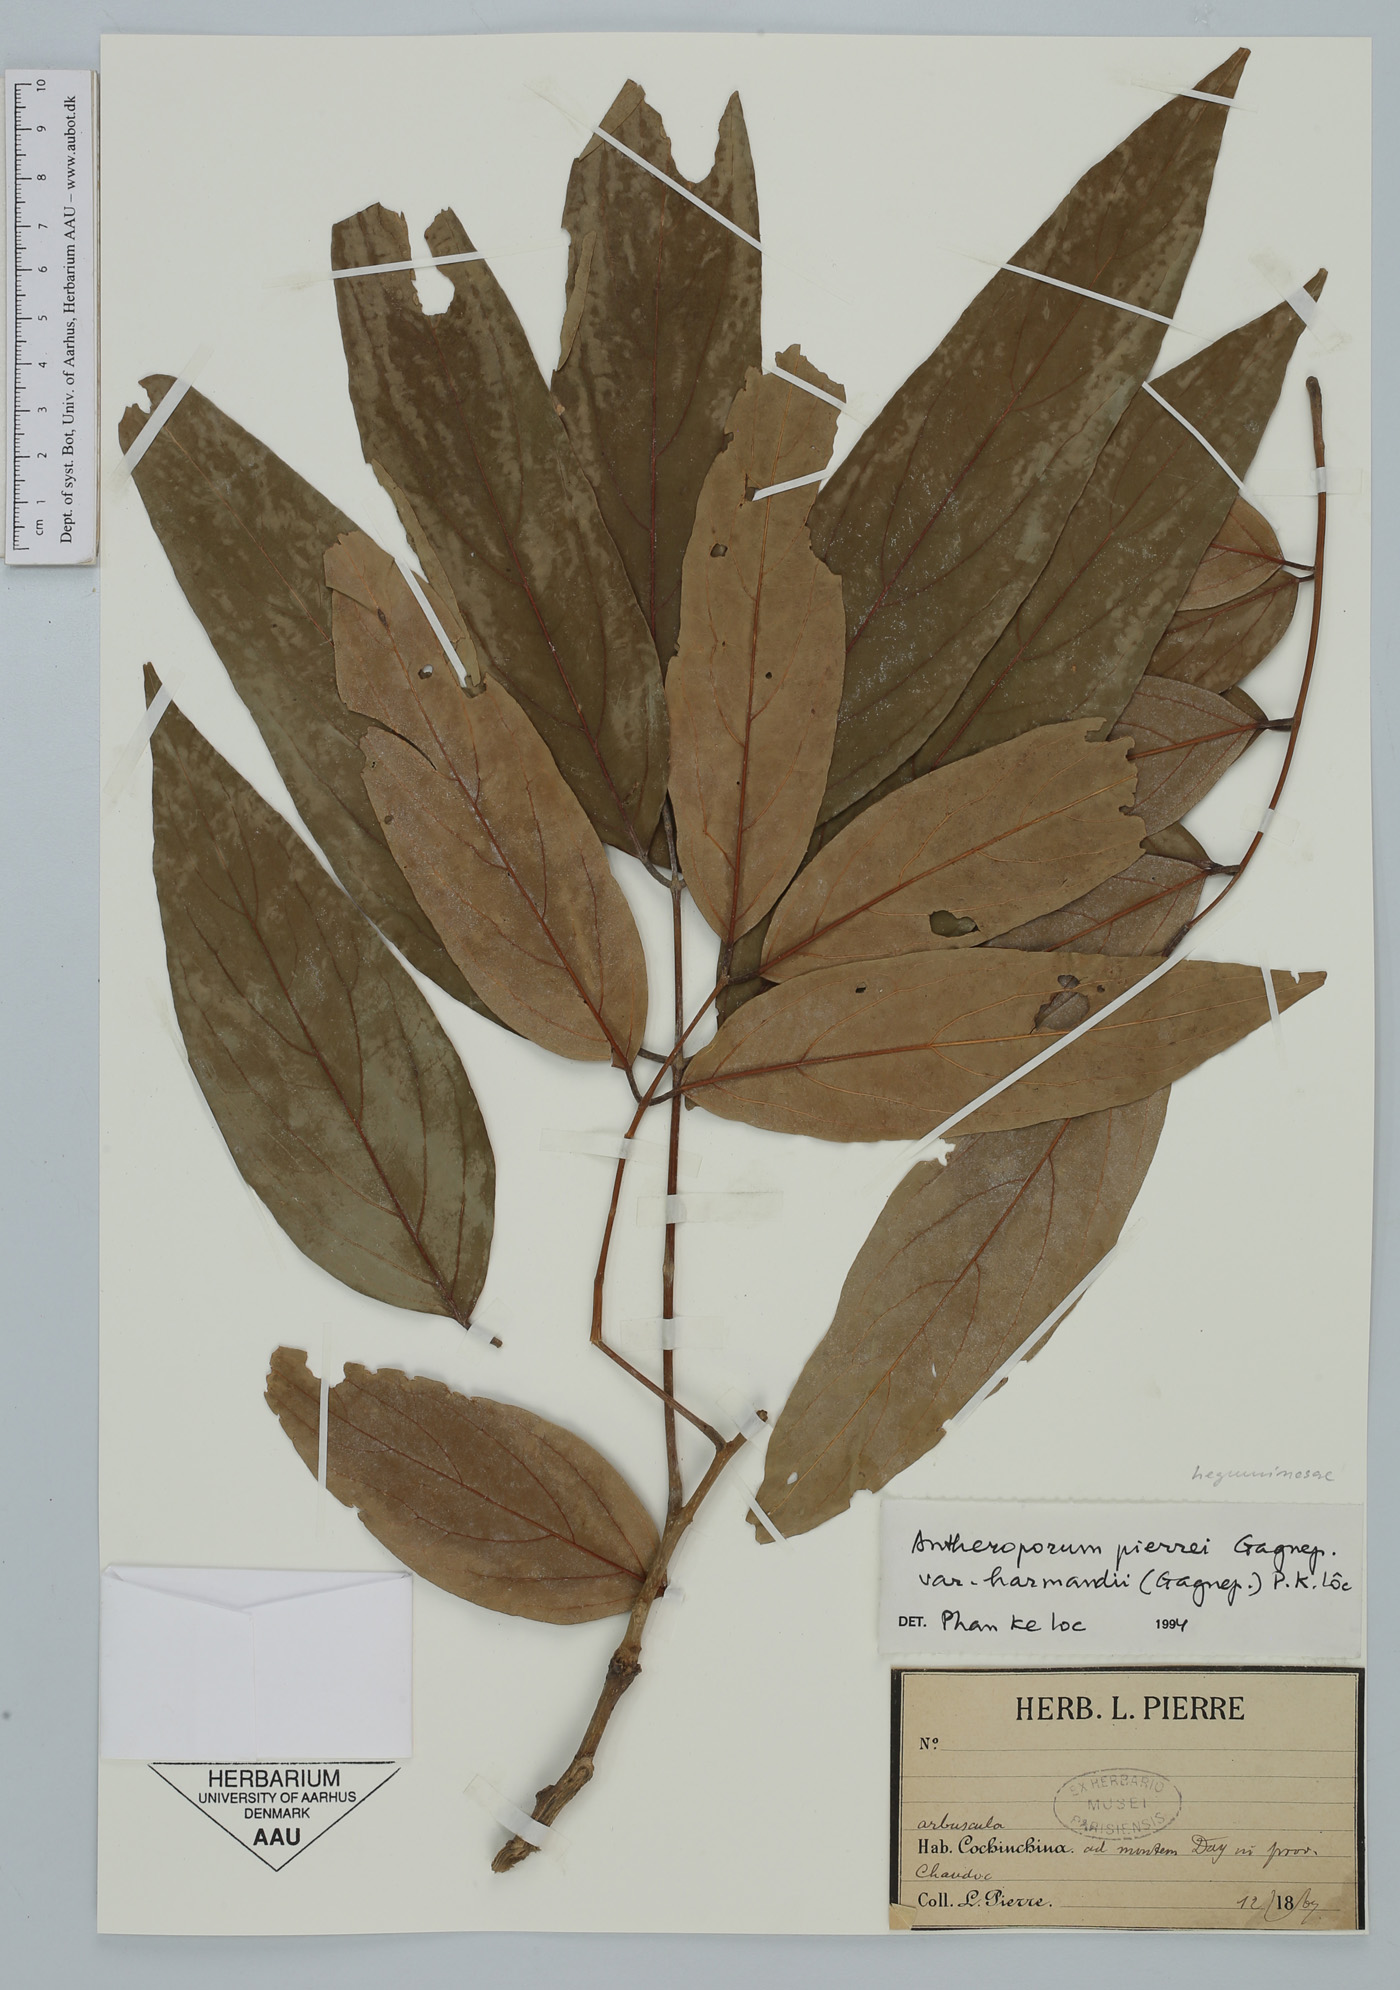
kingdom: Plantae
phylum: Tracheophyta
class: Magnoliopsida
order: Fabales
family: Fabaceae
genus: Antheroporum
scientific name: Antheroporum pierrei
